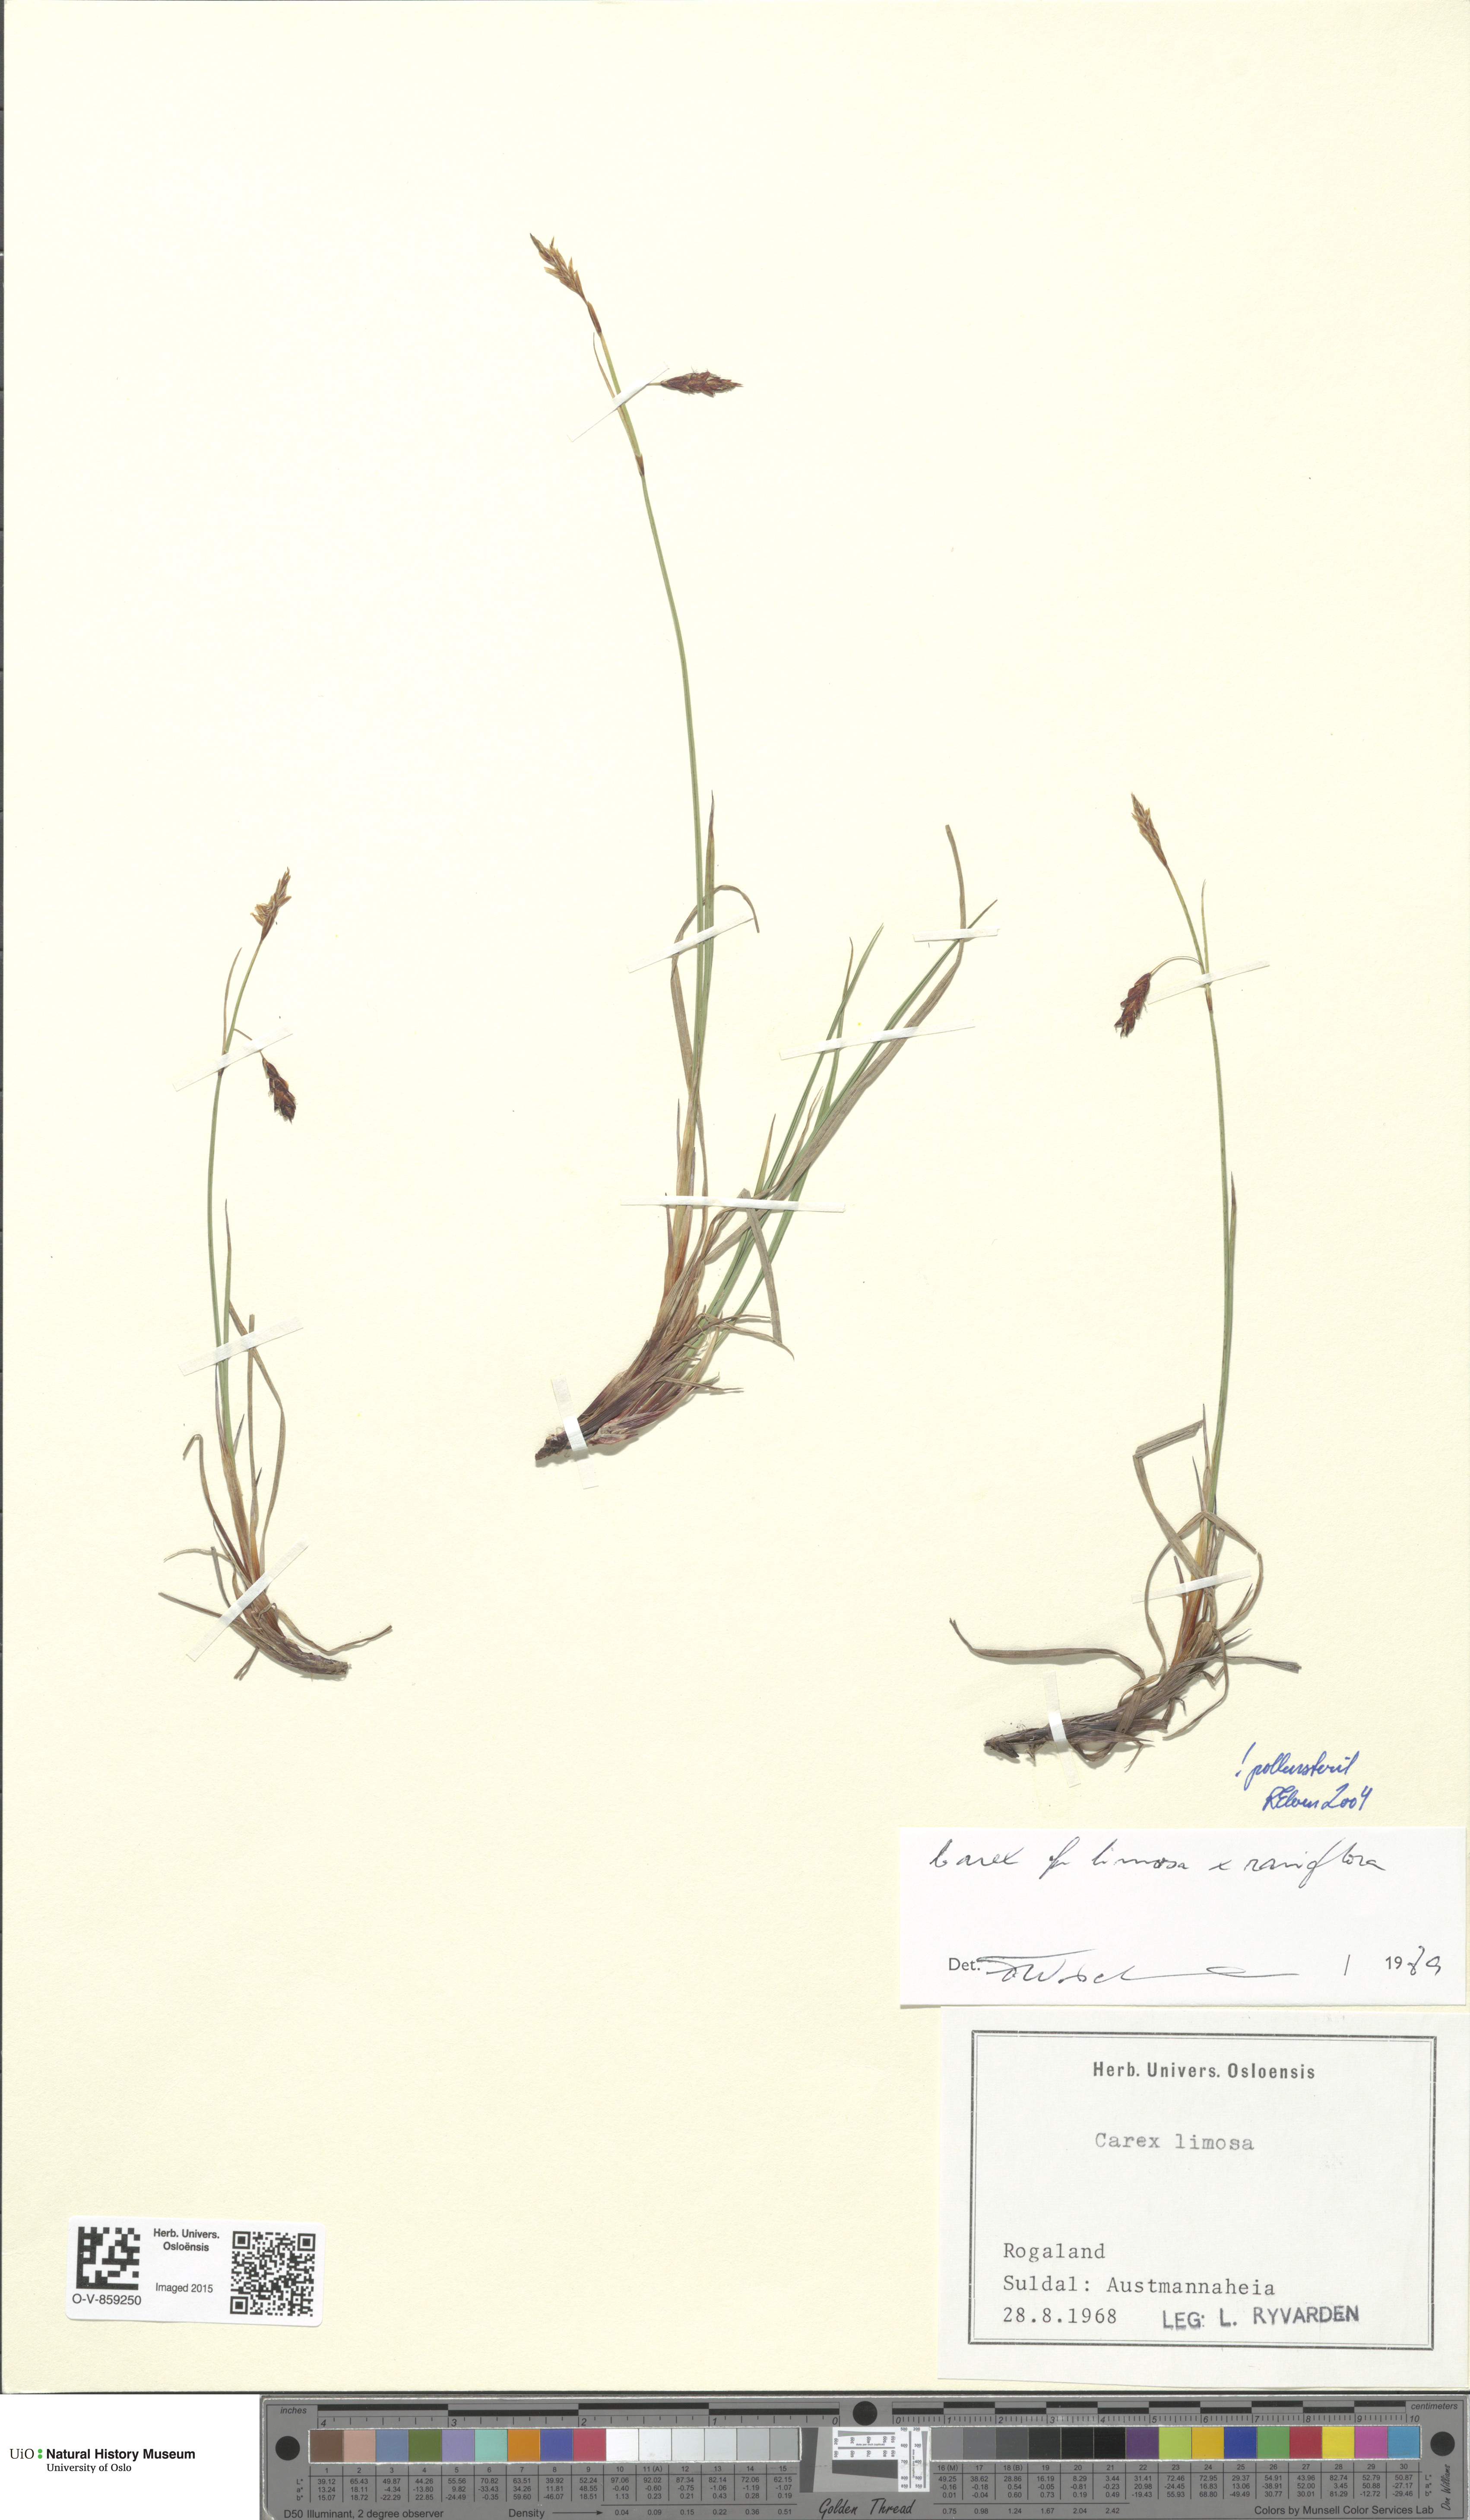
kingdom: Plantae
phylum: Tracheophyta
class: Liliopsida
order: Poales
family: Cyperaceae
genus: Carex
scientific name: Carex
